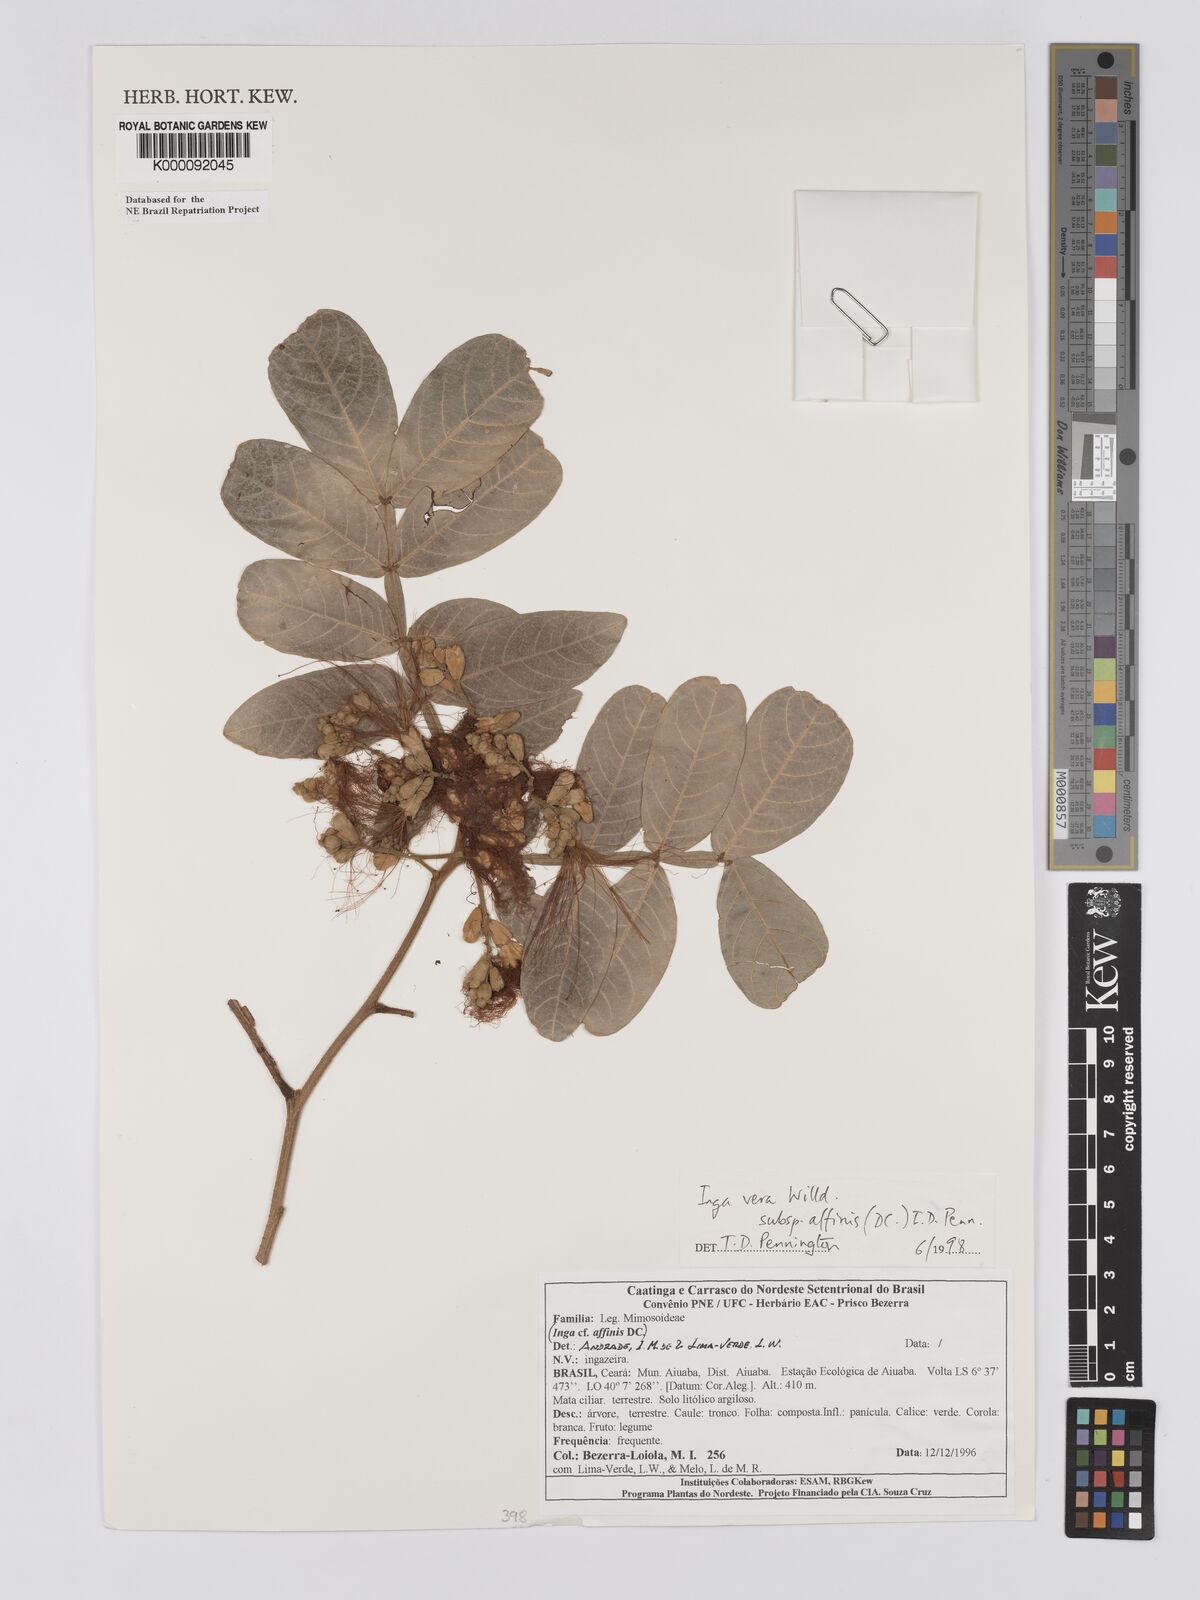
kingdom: Plantae
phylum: Tracheophyta
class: Magnoliopsida
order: Fabales
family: Fabaceae
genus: Inga
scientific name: Inga affinis
